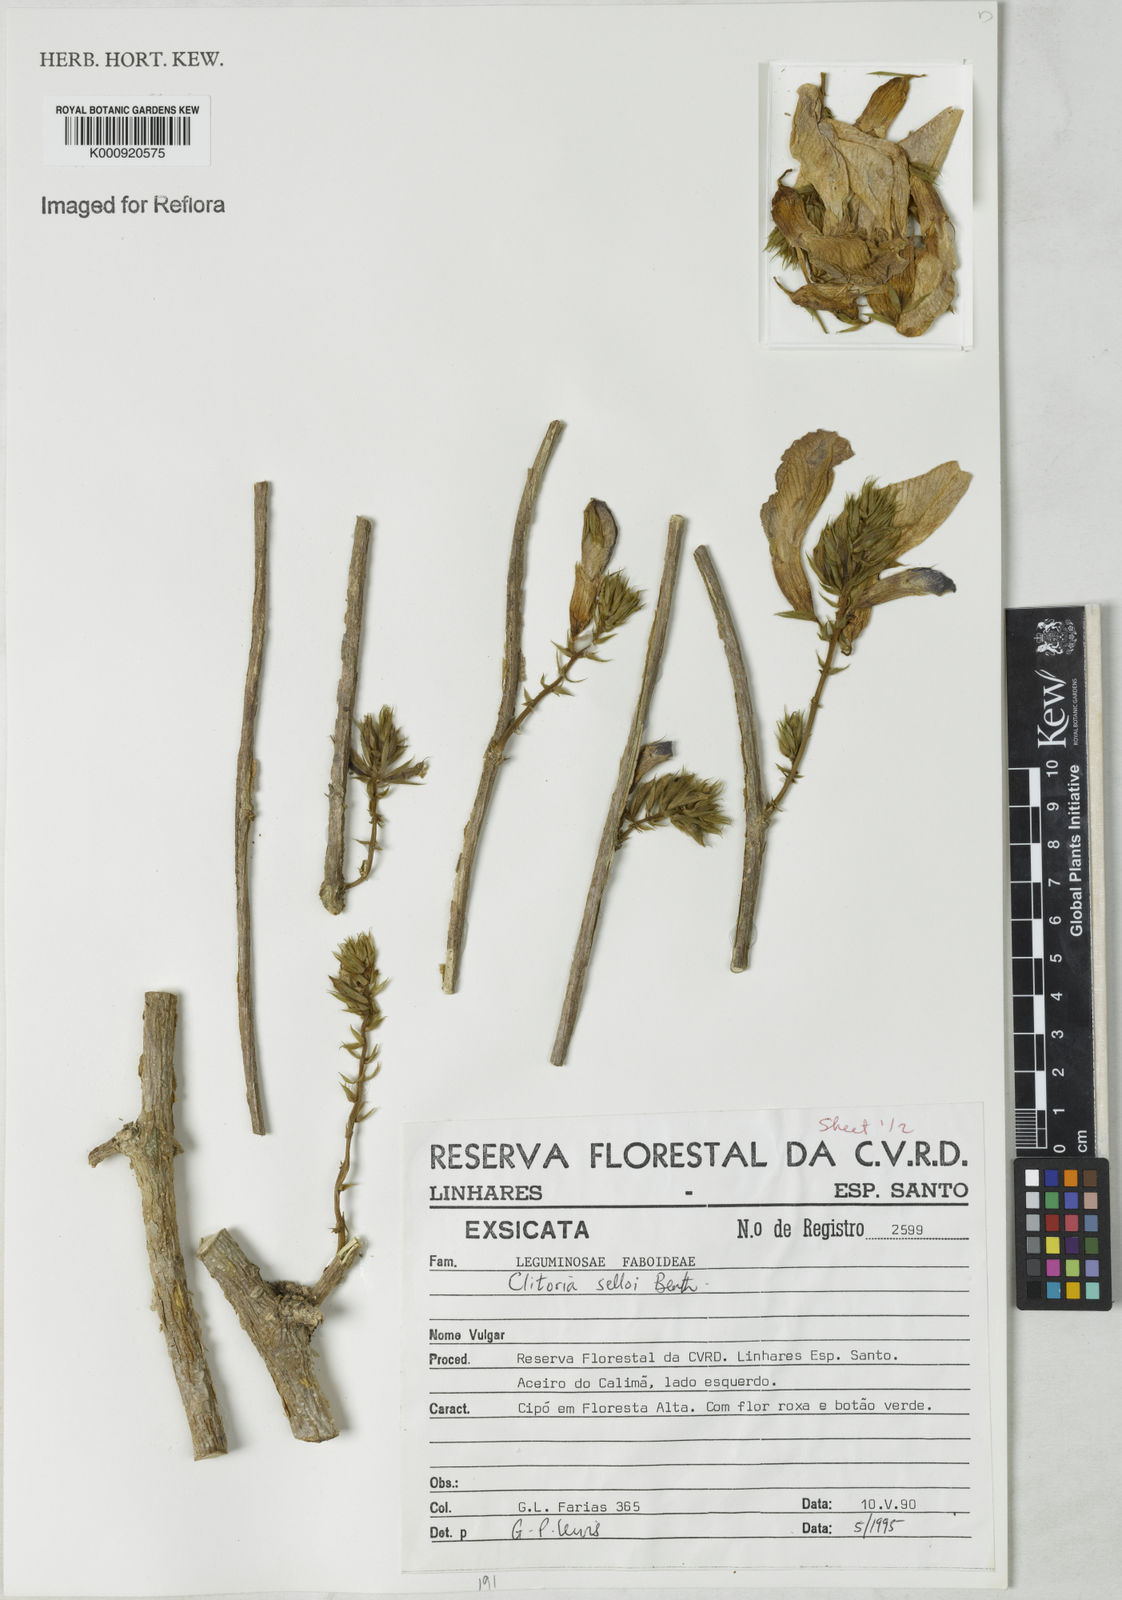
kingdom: Plantae
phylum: Tracheophyta
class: Magnoliopsida
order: Fabales
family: Fabaceae
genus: Clitoria
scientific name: Clitoria selloi
